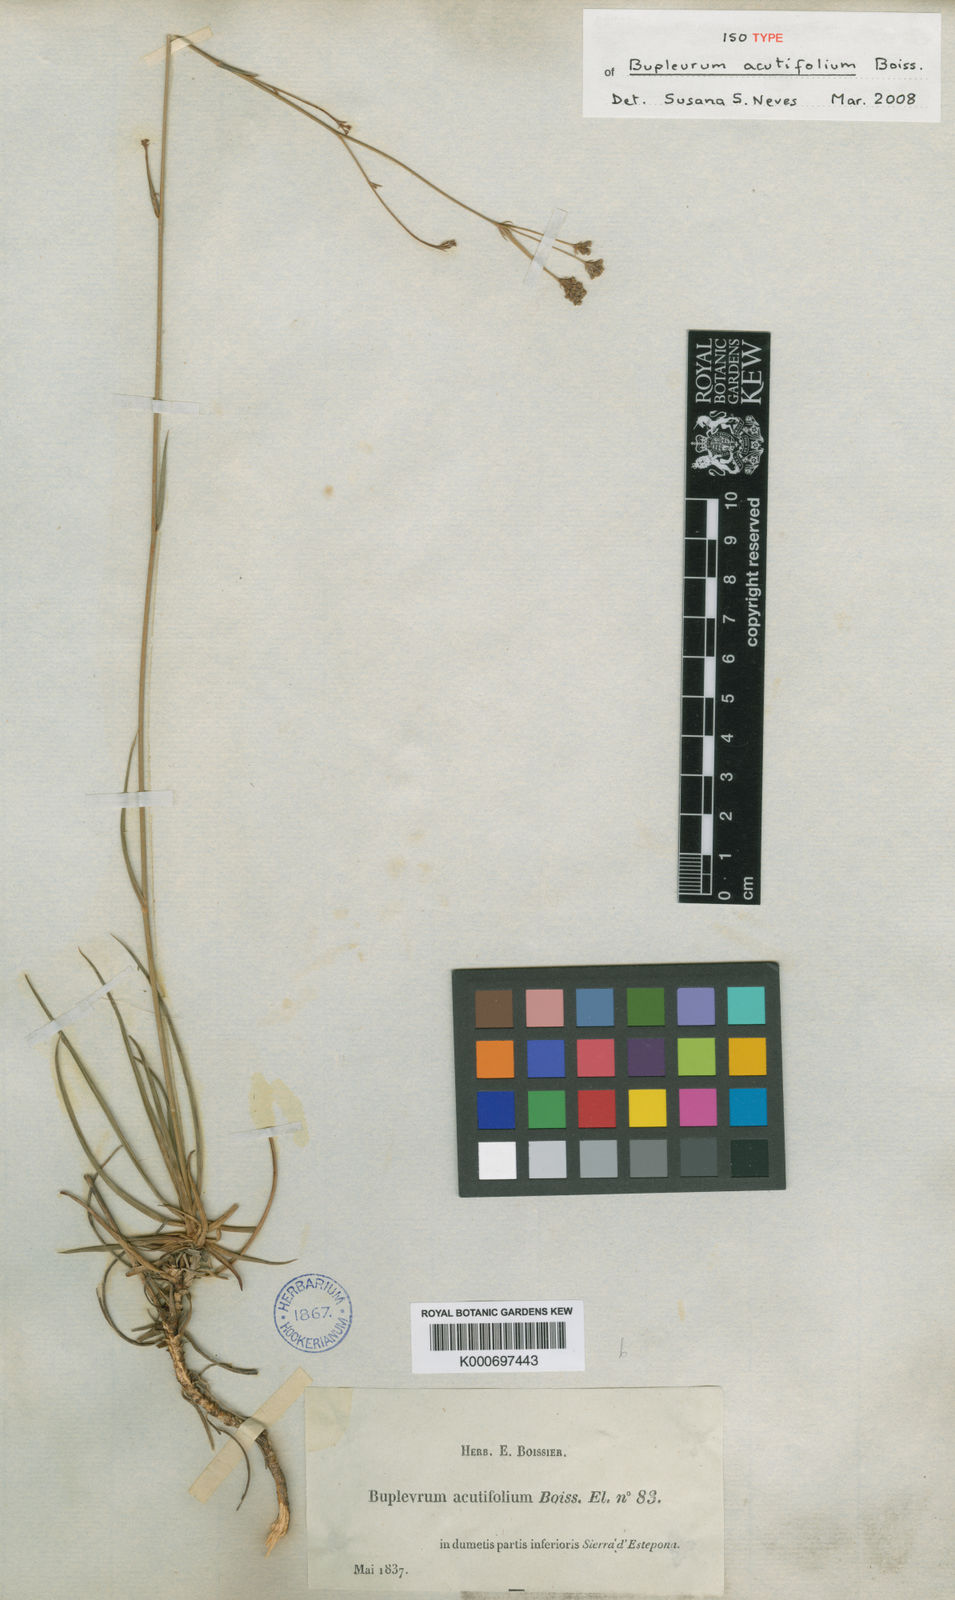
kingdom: Plantae
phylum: Tracheophyta
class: Magnoliopsida
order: Apiales
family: Apiaceae
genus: Bupleurum
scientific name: Bupleurum acutifolium
